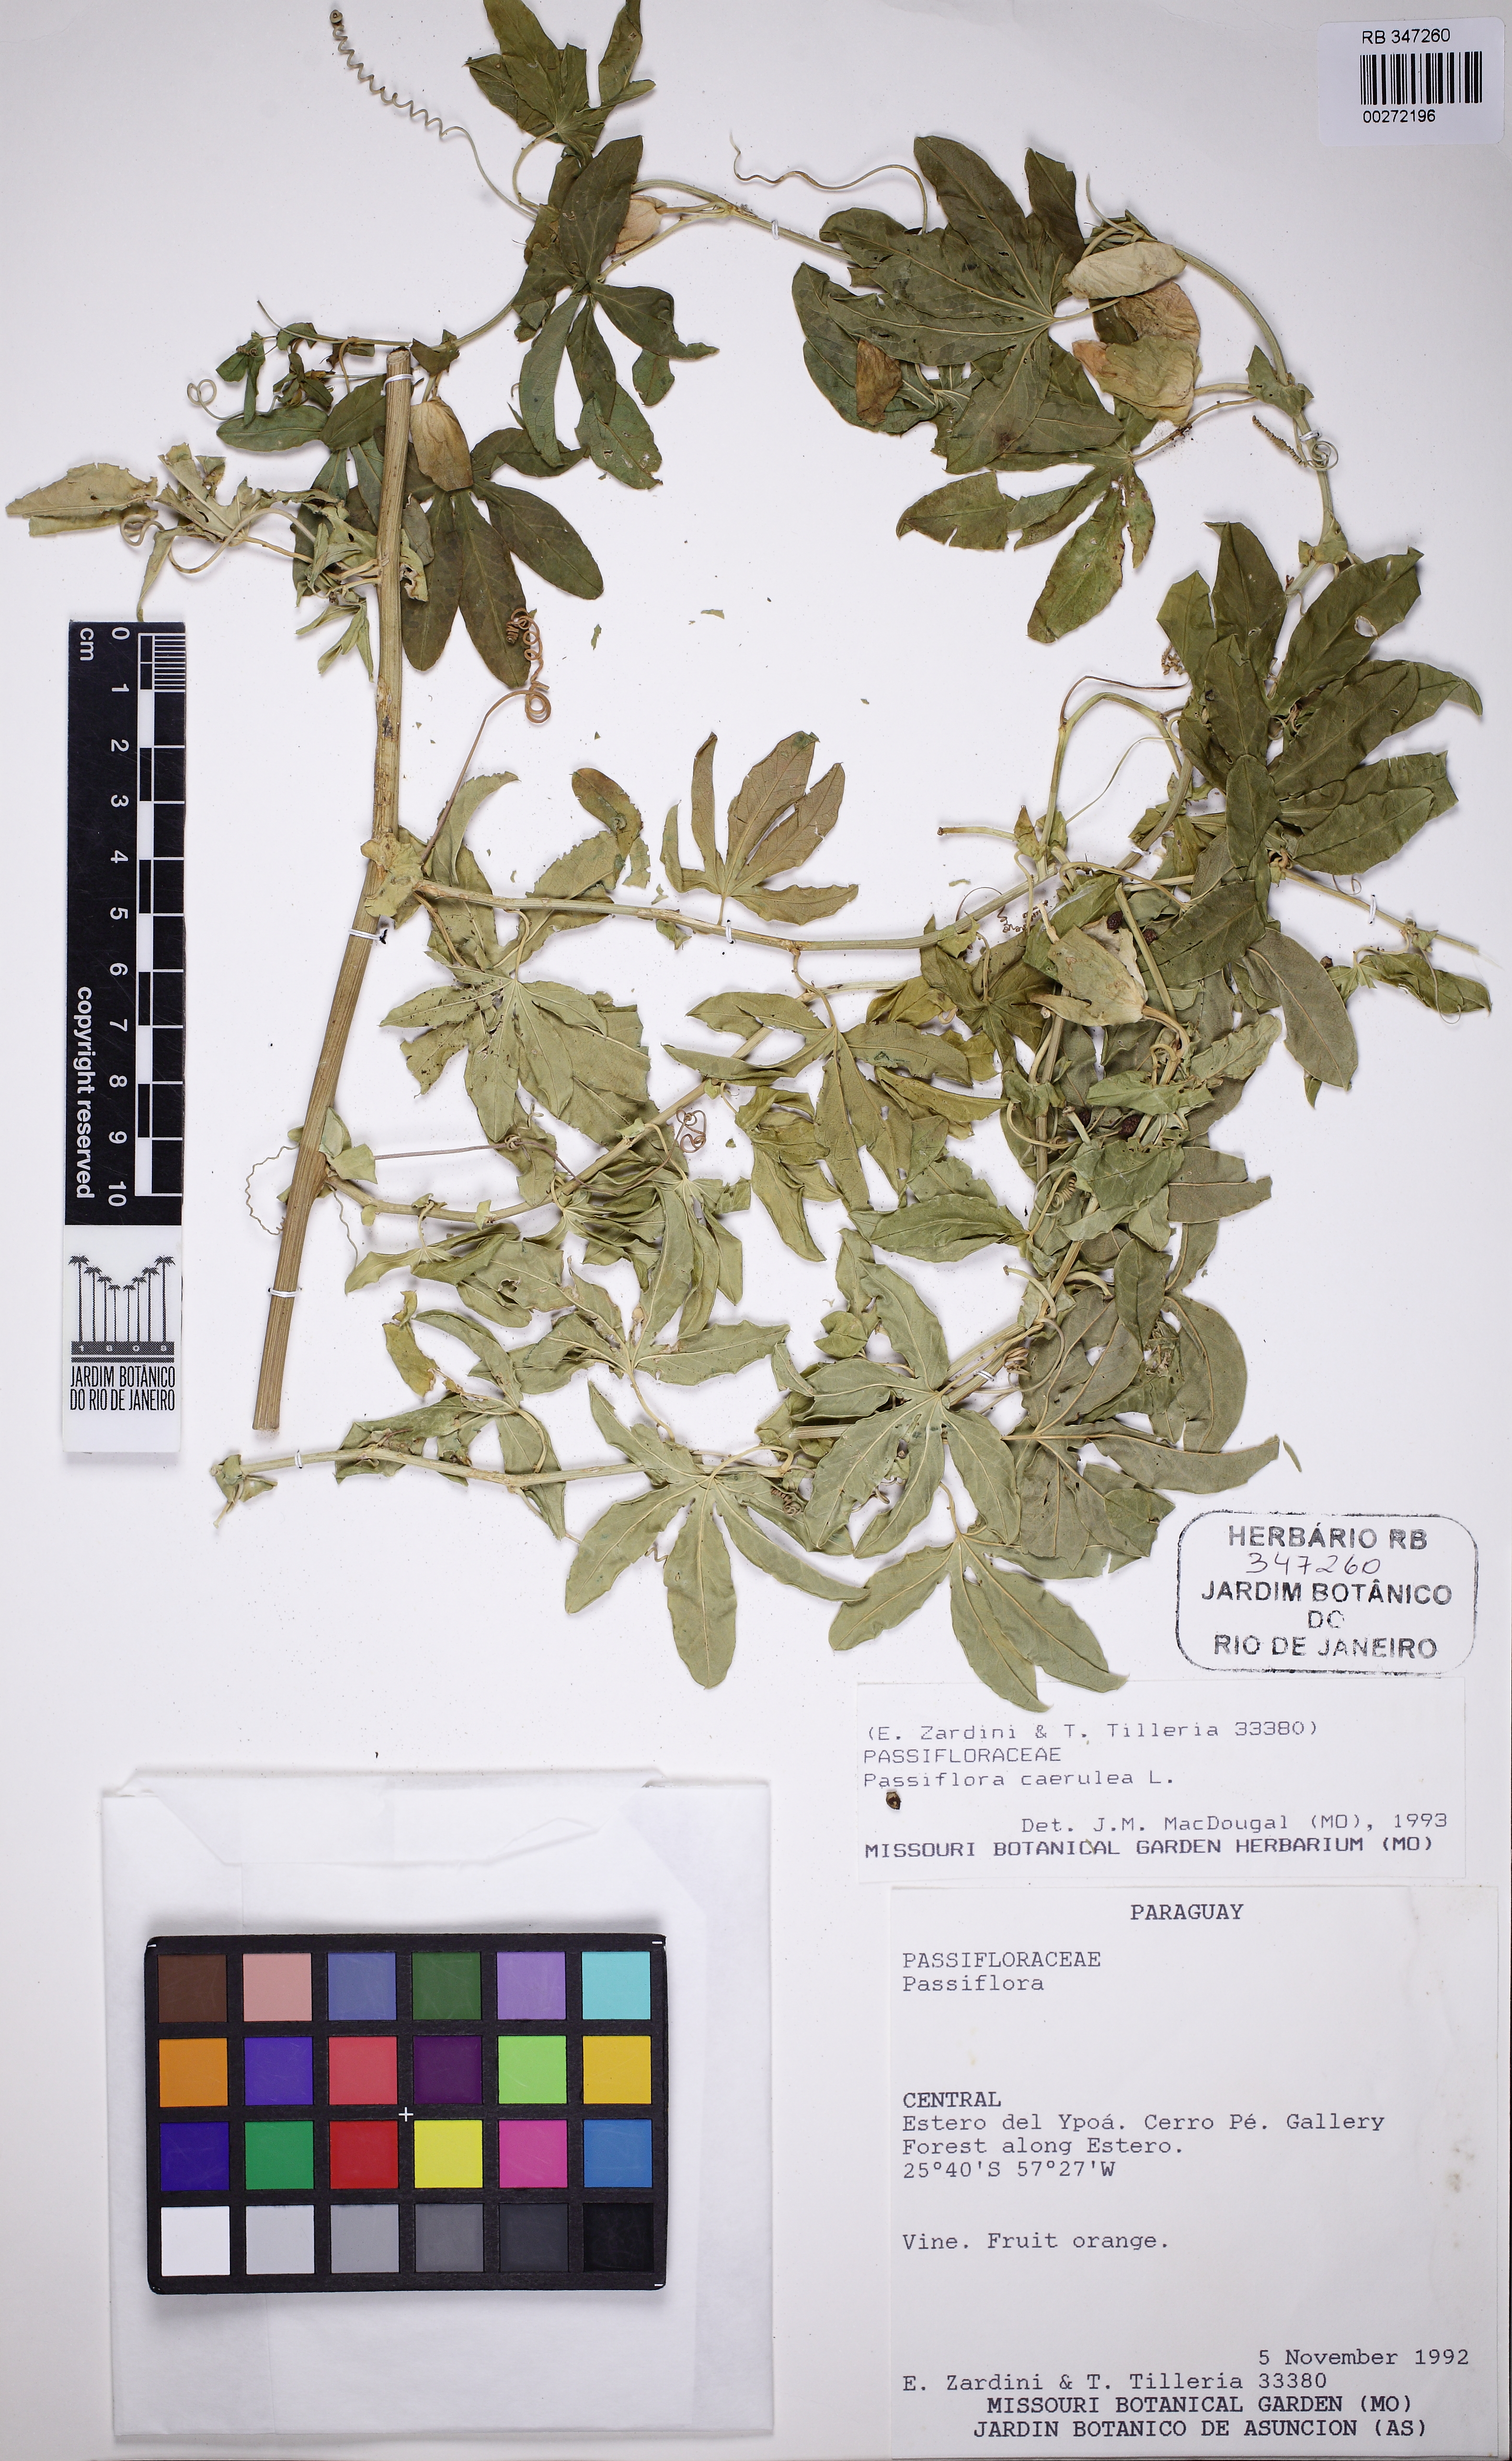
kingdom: Plantae
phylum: Tracheophyta
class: Magnoliopsida
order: Malpighiales
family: Passifloraceae
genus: Passiflora
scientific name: Passiflora caerulea
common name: Blue passionflower
